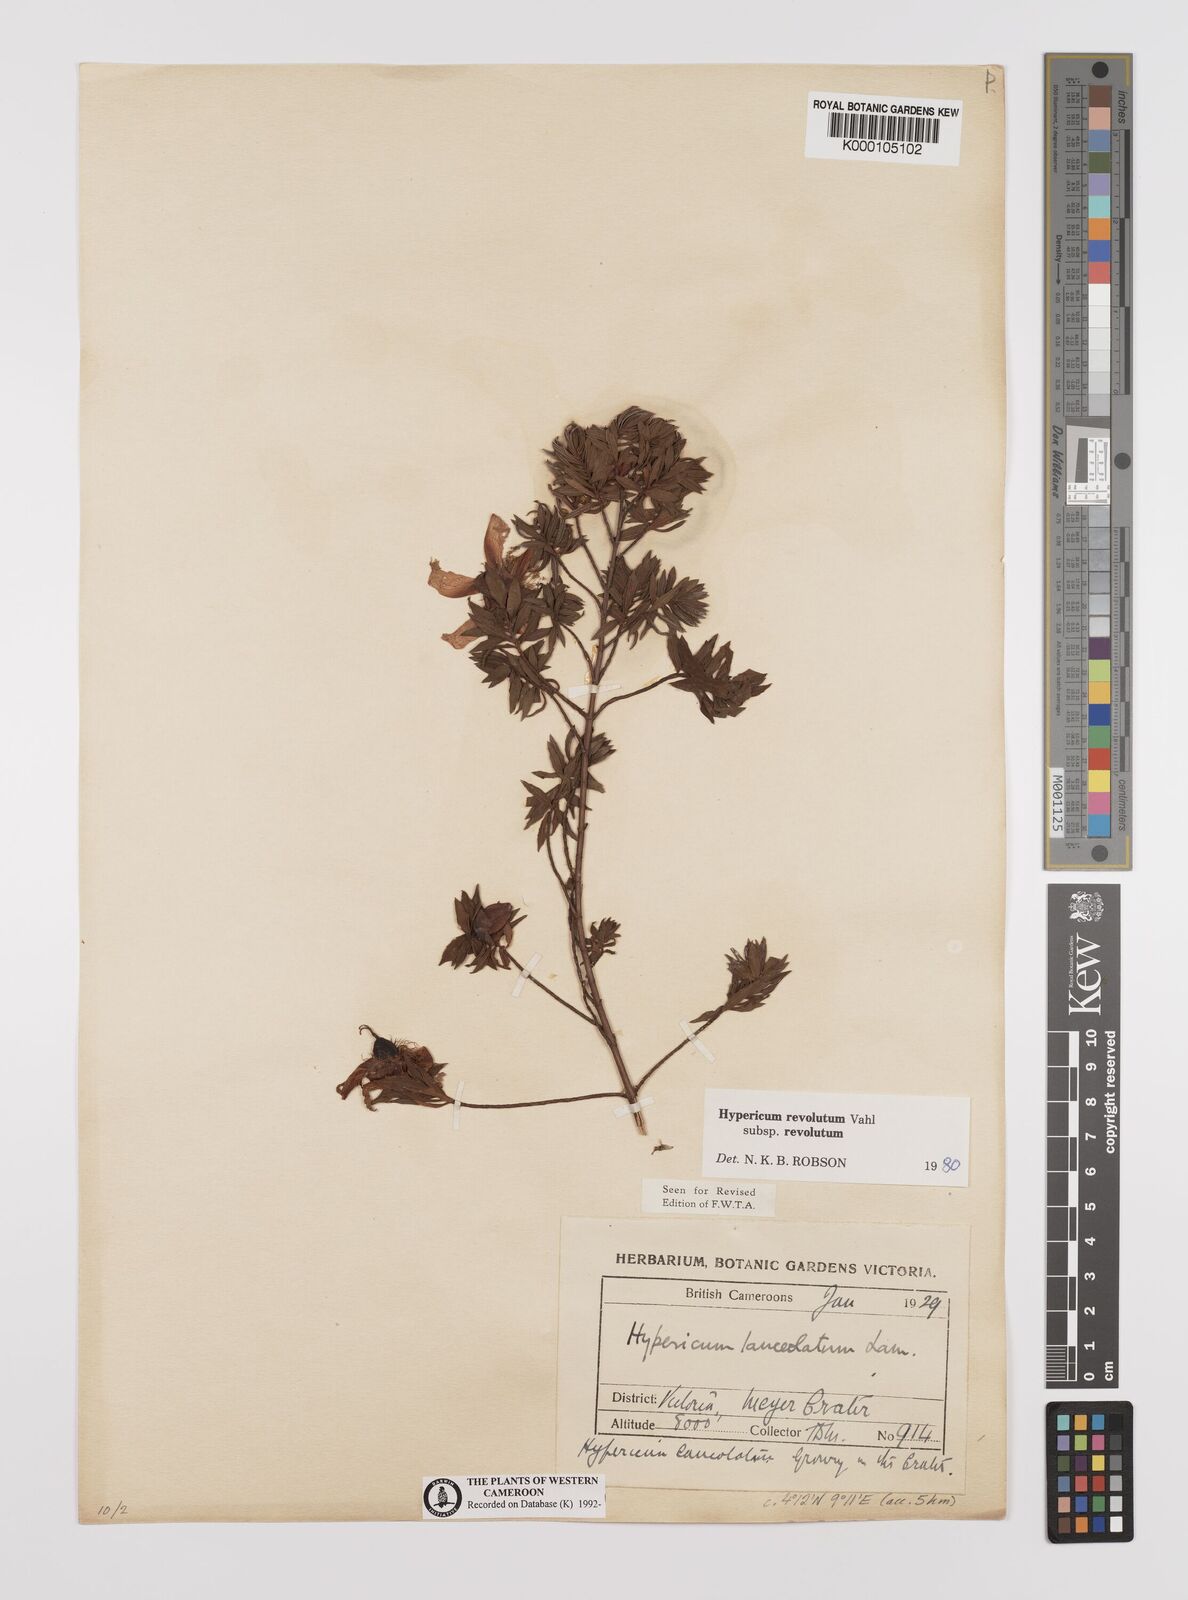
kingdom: Plantae
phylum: Tracheophyta
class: Magnoliopsida
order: Malpighiales
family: Hypericaceae
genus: Hypericum
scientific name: Hypericum revolutum
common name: Curry bush
